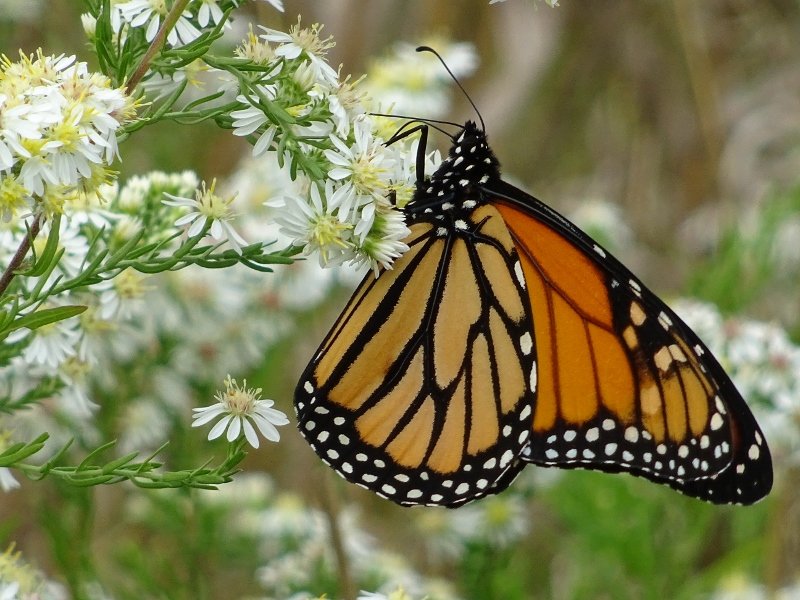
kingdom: Animalia
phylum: Arthropoda
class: Insecta
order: Lepidoptera
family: Nymphalidae
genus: Danaus
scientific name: Danaus plexippus
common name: Monarch
